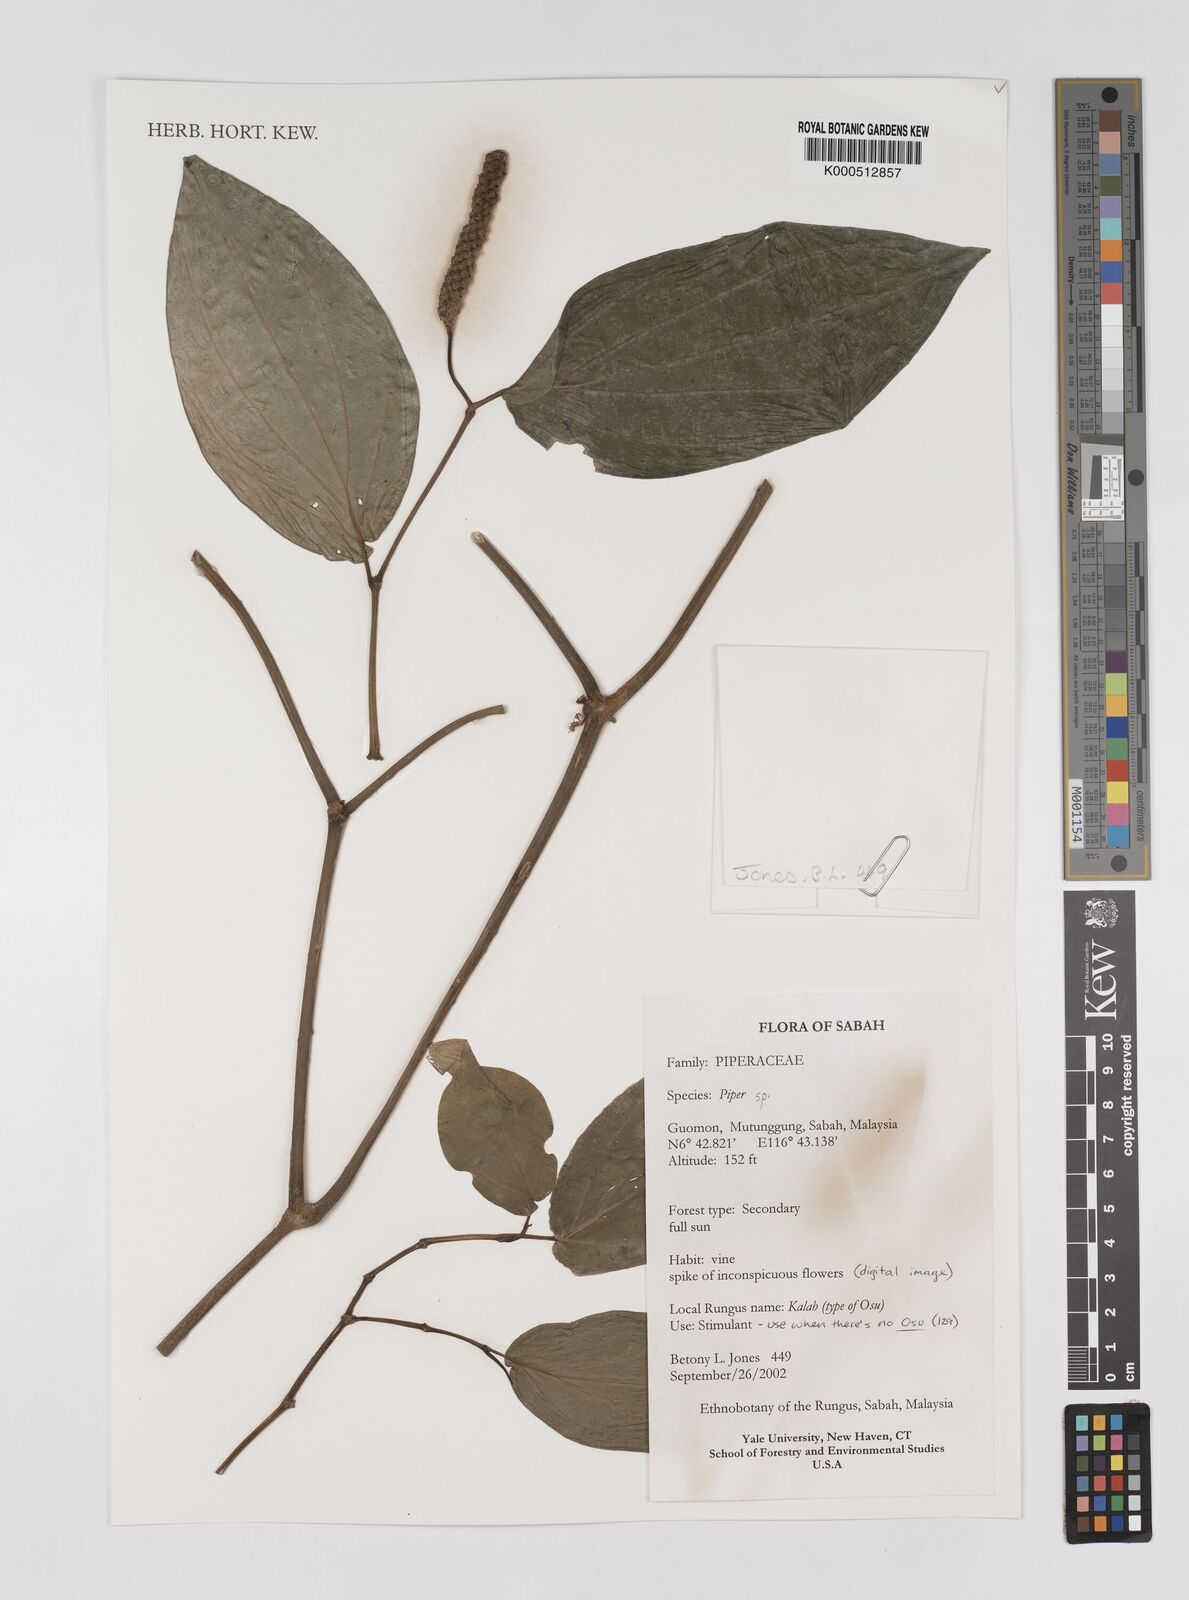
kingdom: Plantae
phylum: Tracheophyta
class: Magnoliopsida
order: Piperales
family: Piperaceae
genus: Piper
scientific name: Piper
